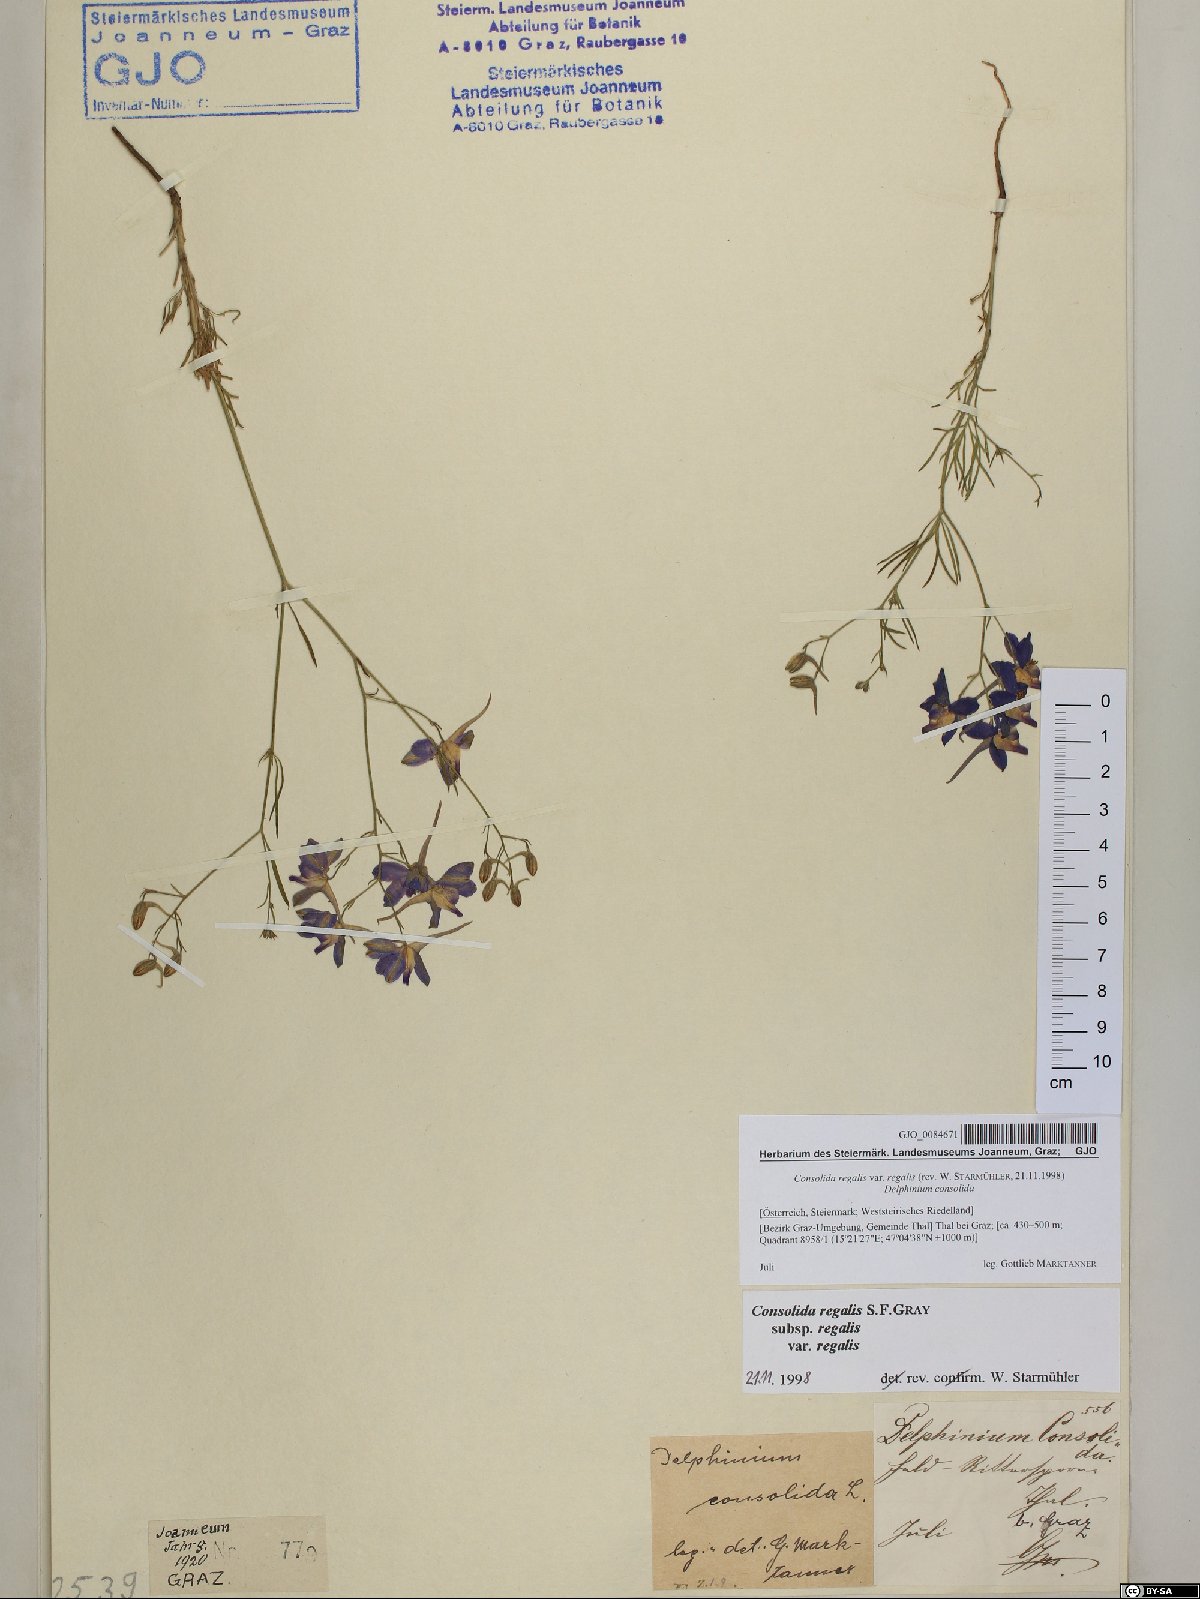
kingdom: Plantae
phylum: Tracheophyta
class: Magnoliopsida
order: Ranunculales
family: Ranunculaceae
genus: Delphinium
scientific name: Delphinium consolida
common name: Branching larkspur
